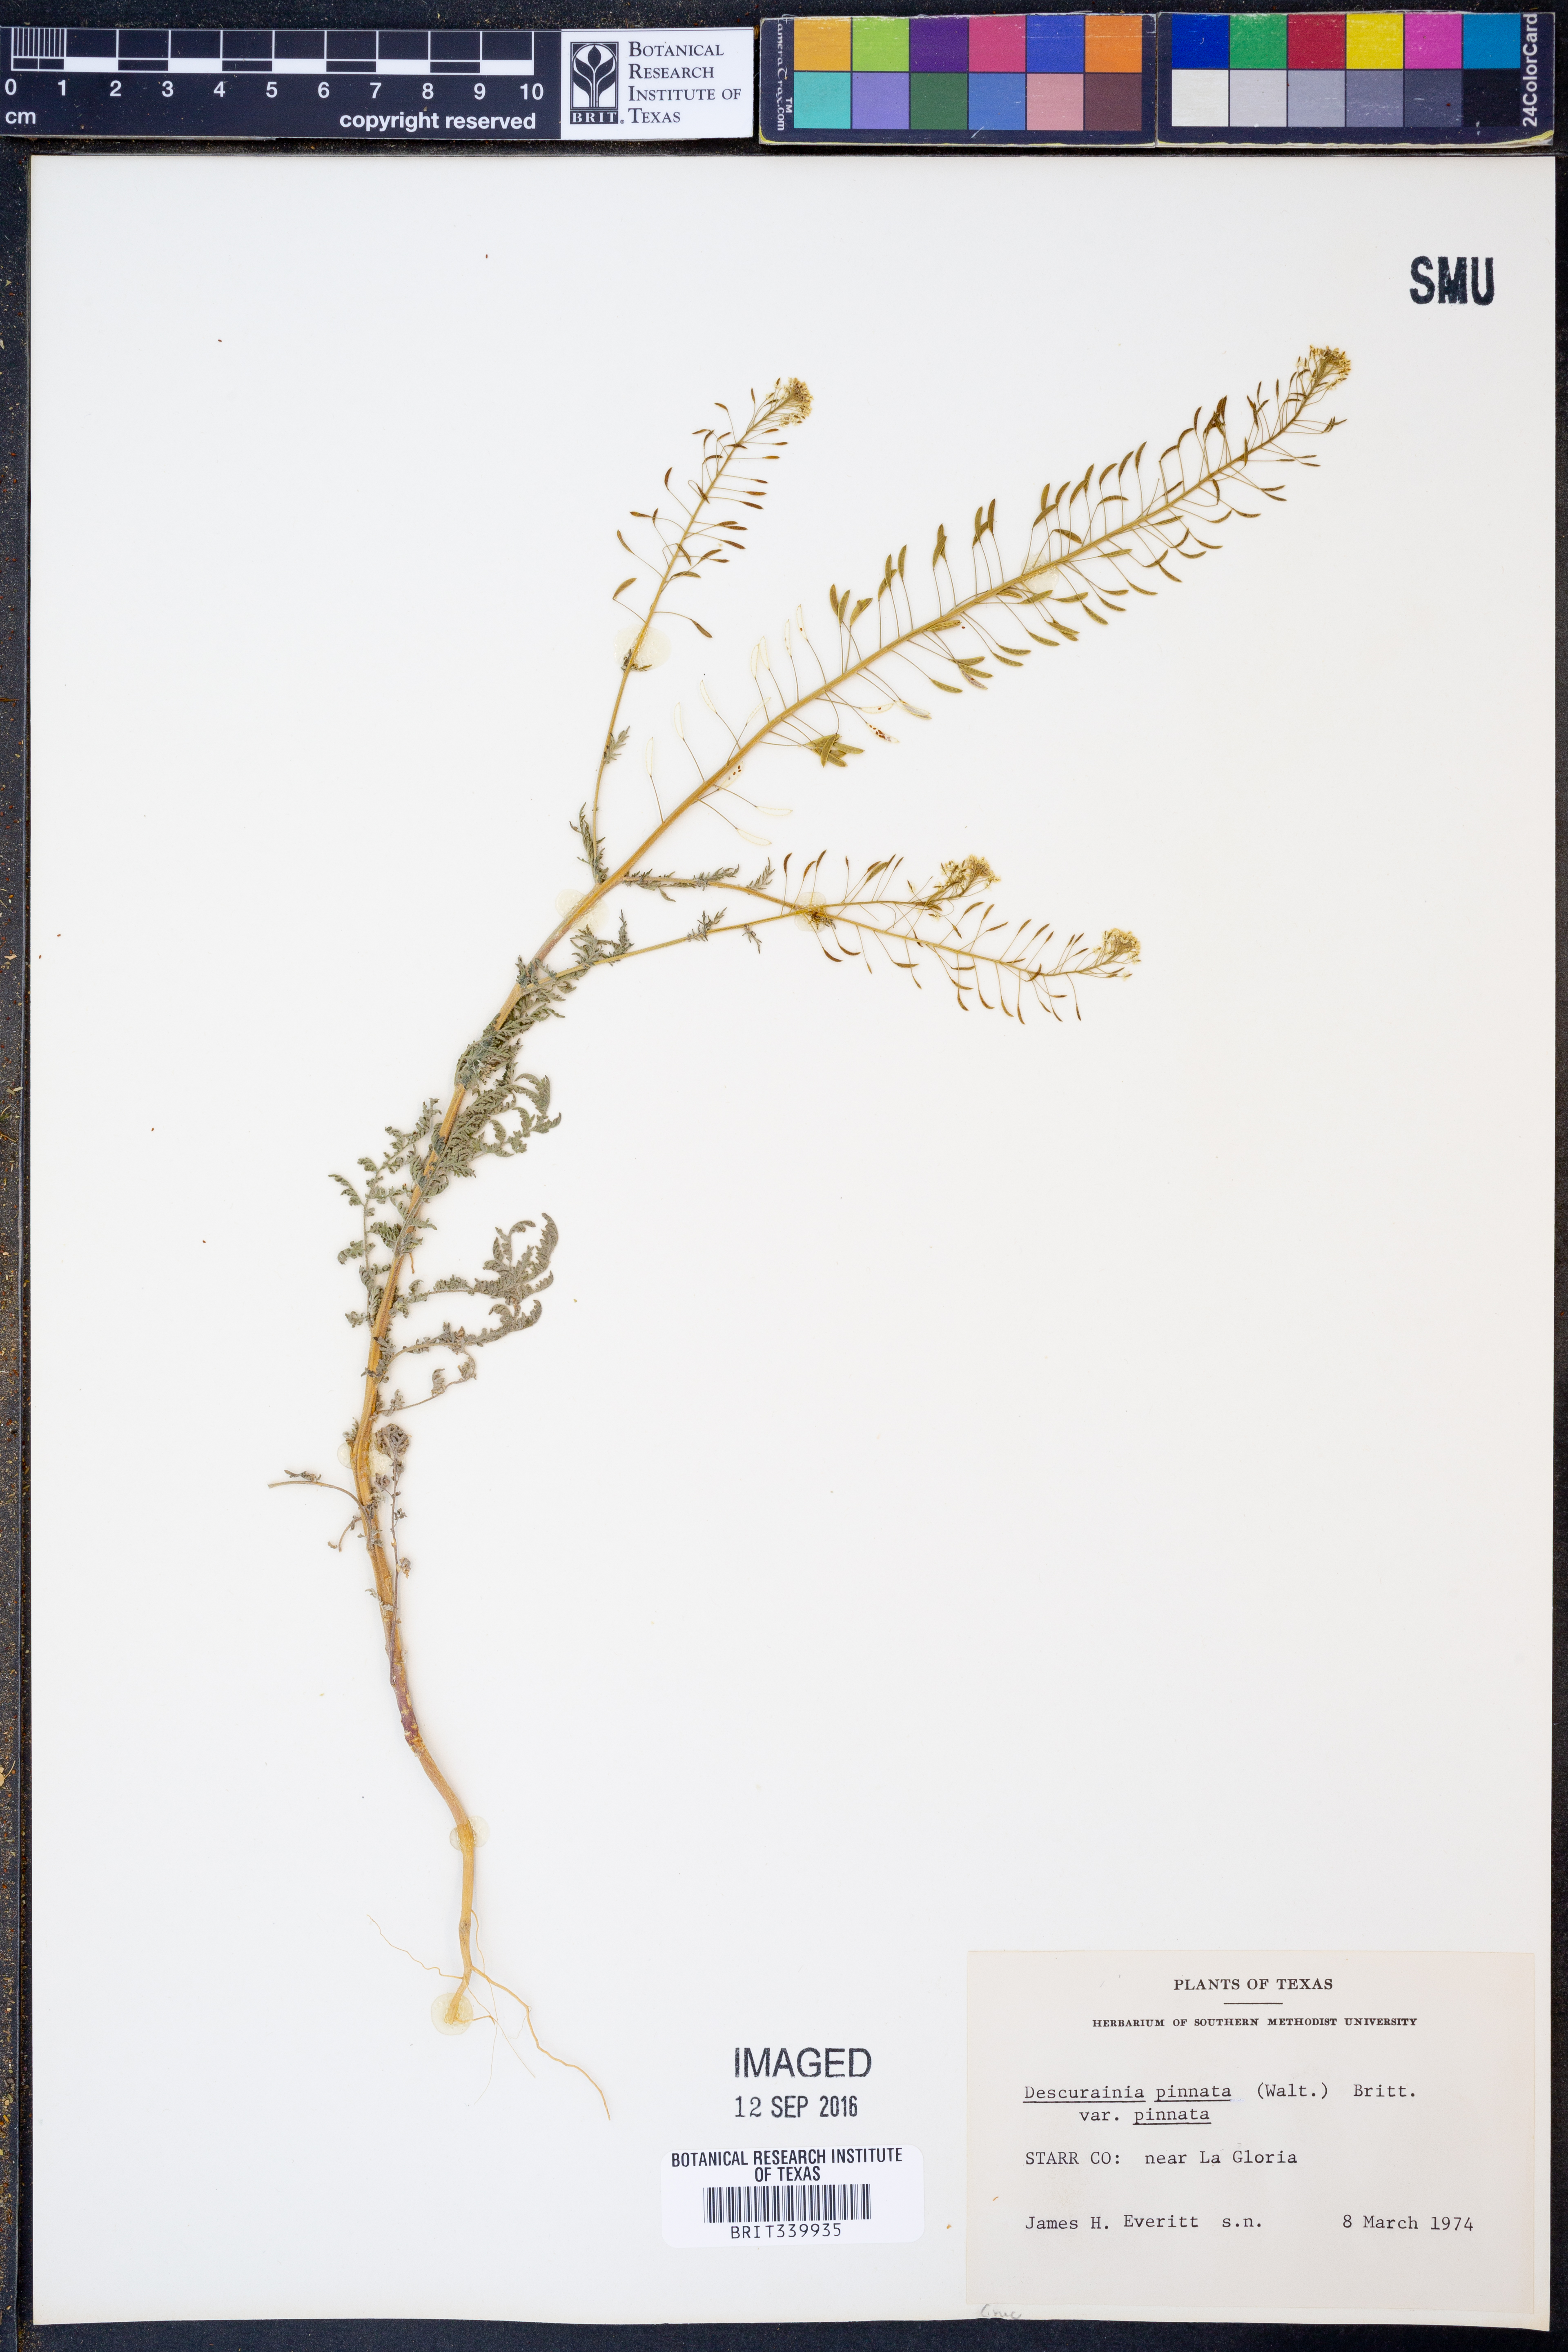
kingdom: Plantae
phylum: Tracheophyta
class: Magnoliopsida
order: Brassicales
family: Brassicaceae
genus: Descurainia
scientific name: Descurainia pinnata
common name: Western tansy mustard
